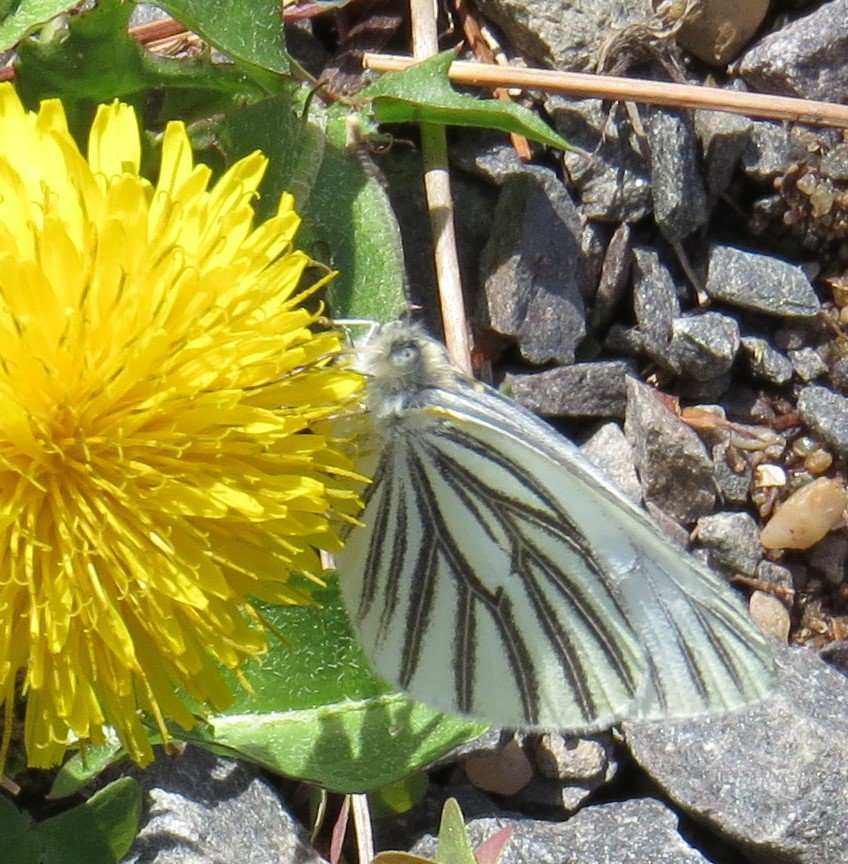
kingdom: Animalia
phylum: Arthropoda
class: Insecta
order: Lepidoptera
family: Pieridae
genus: Pieris
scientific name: Pieris oleracea
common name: Mustard White
